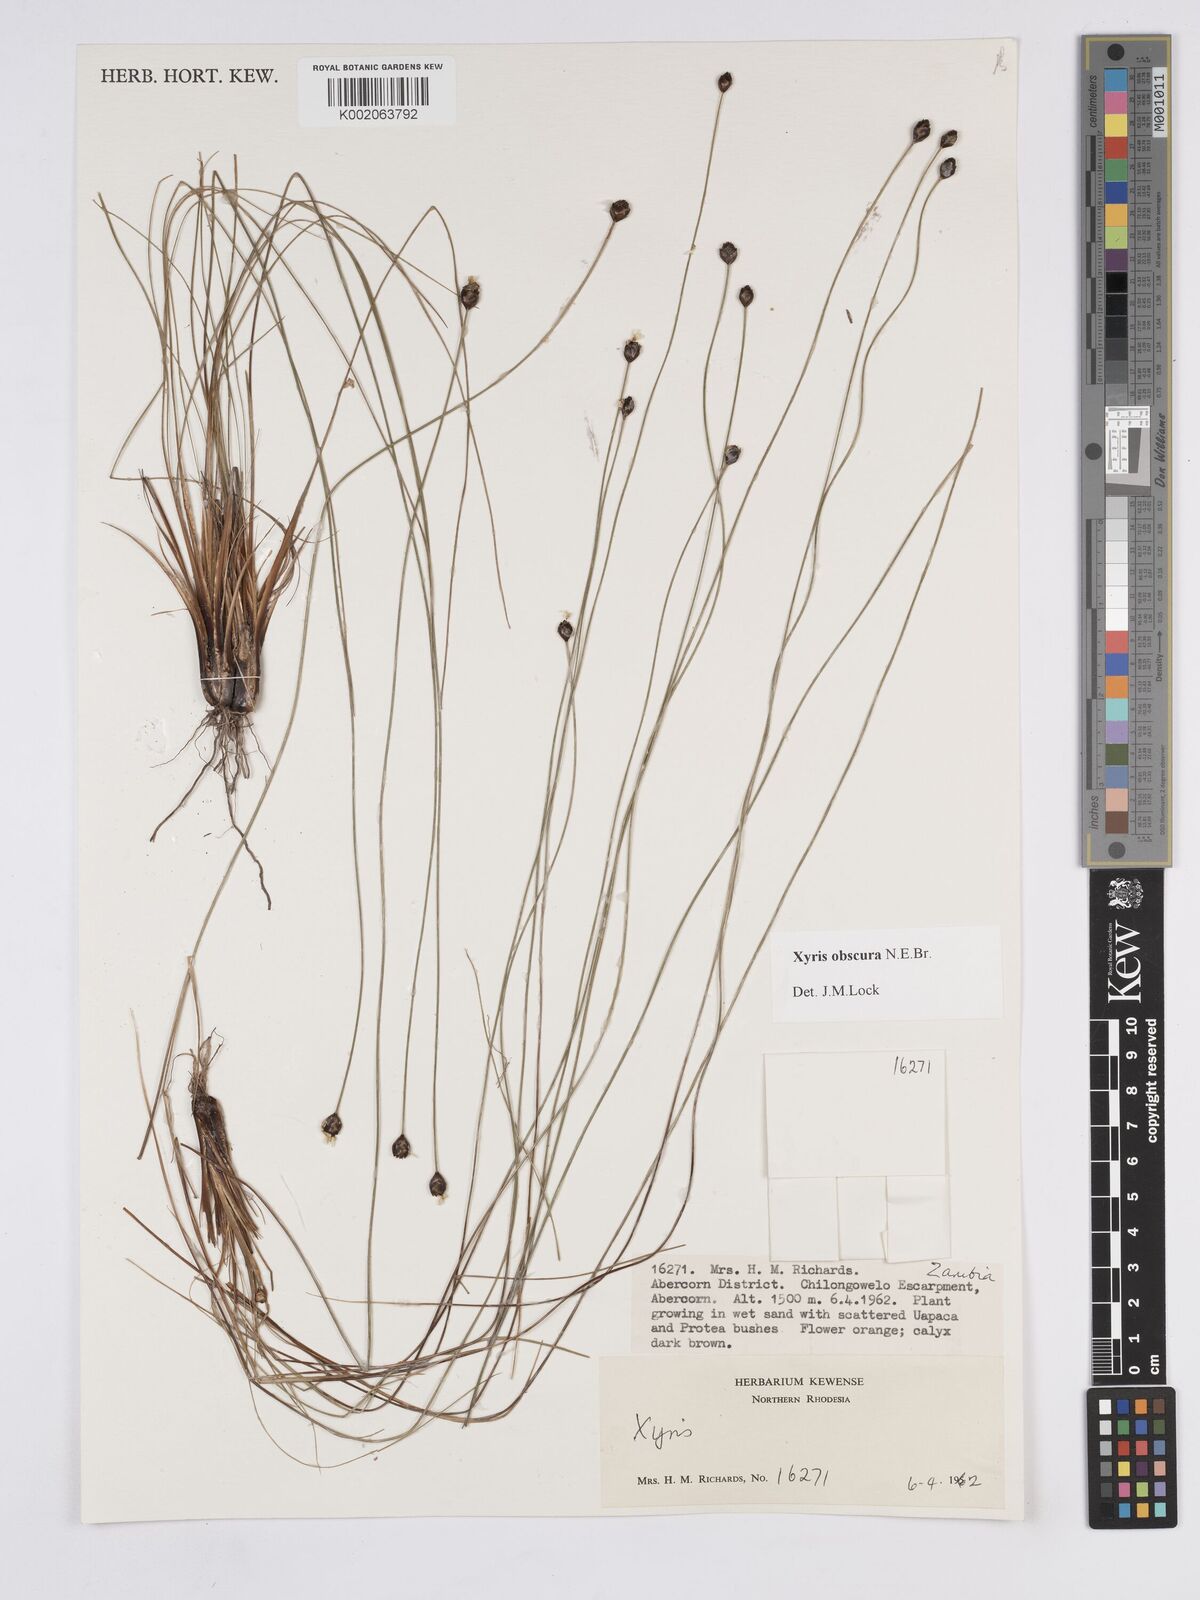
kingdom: Plantae
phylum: Tracheophyta
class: Liliopsida
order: Poales
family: Xyridaceae
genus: Xyris
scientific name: Xyris obscura
